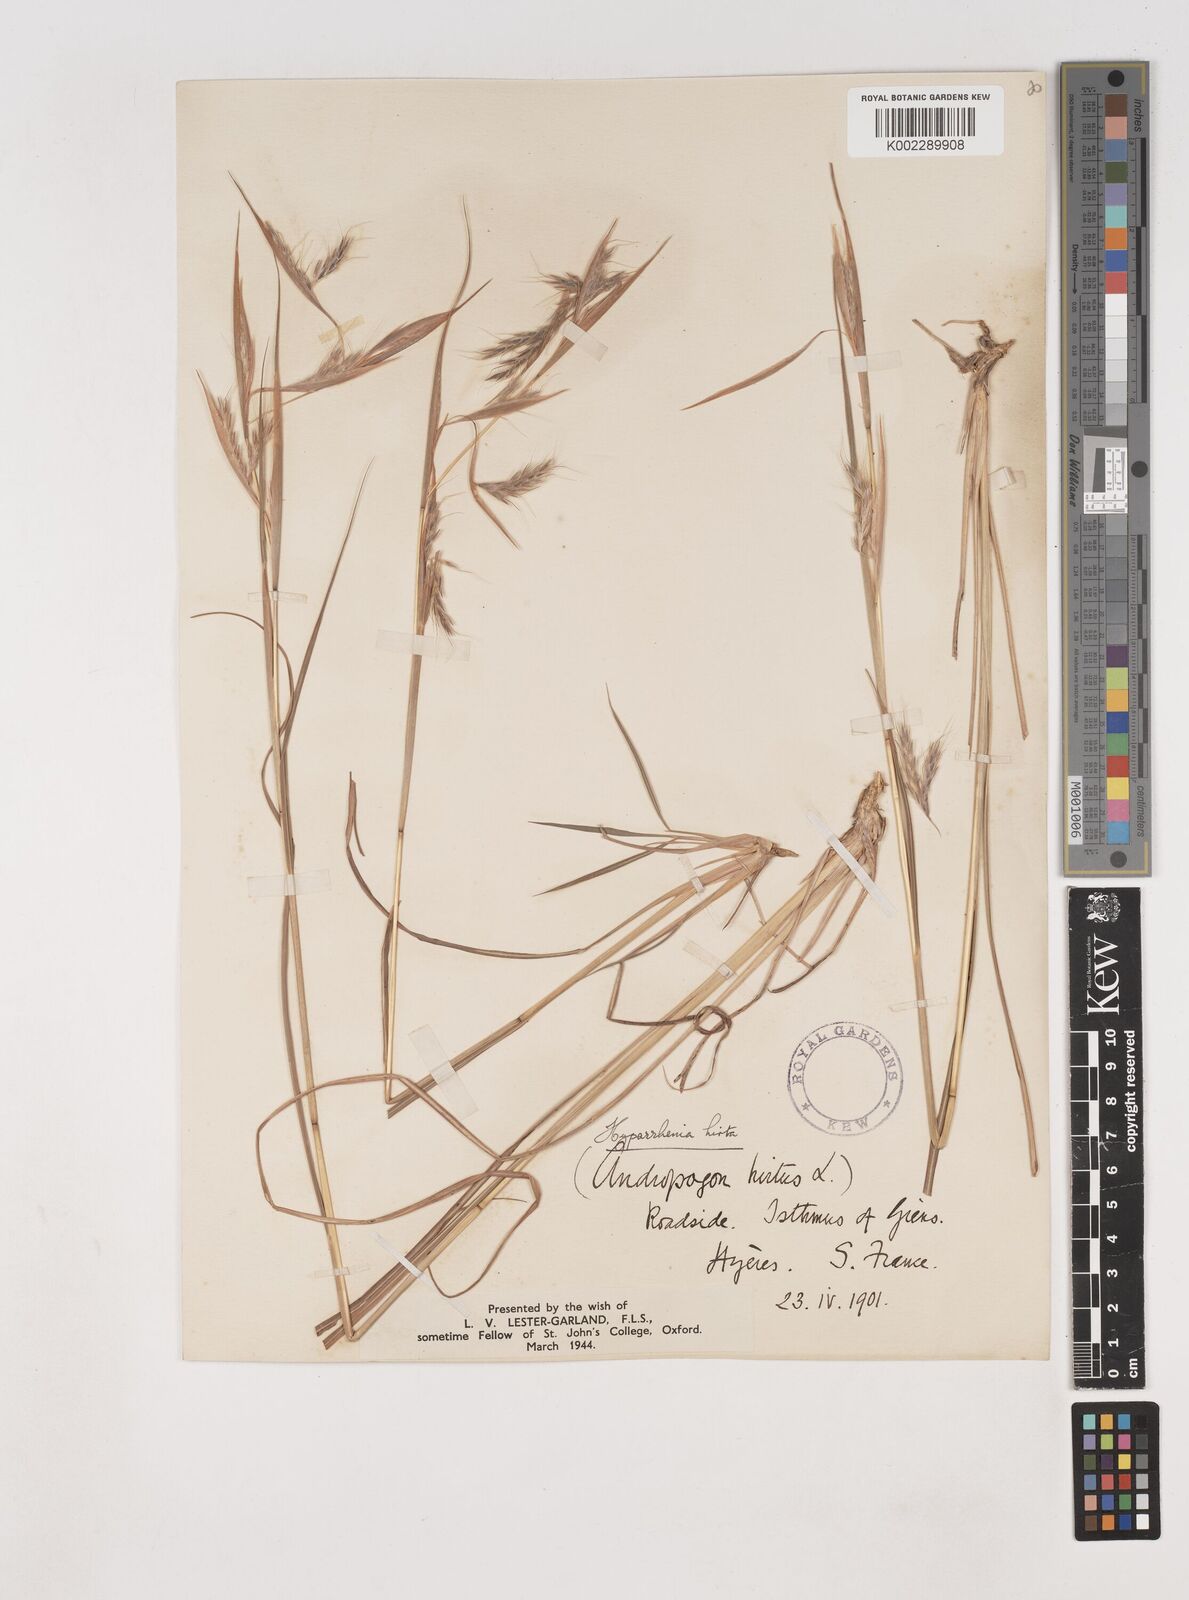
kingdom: Plantae
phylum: Tracheophyta
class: Liliopsida
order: Poales
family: Poaceae
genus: Hyparrhenia
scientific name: Hyparrhenia hirta
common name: Thatching grass
